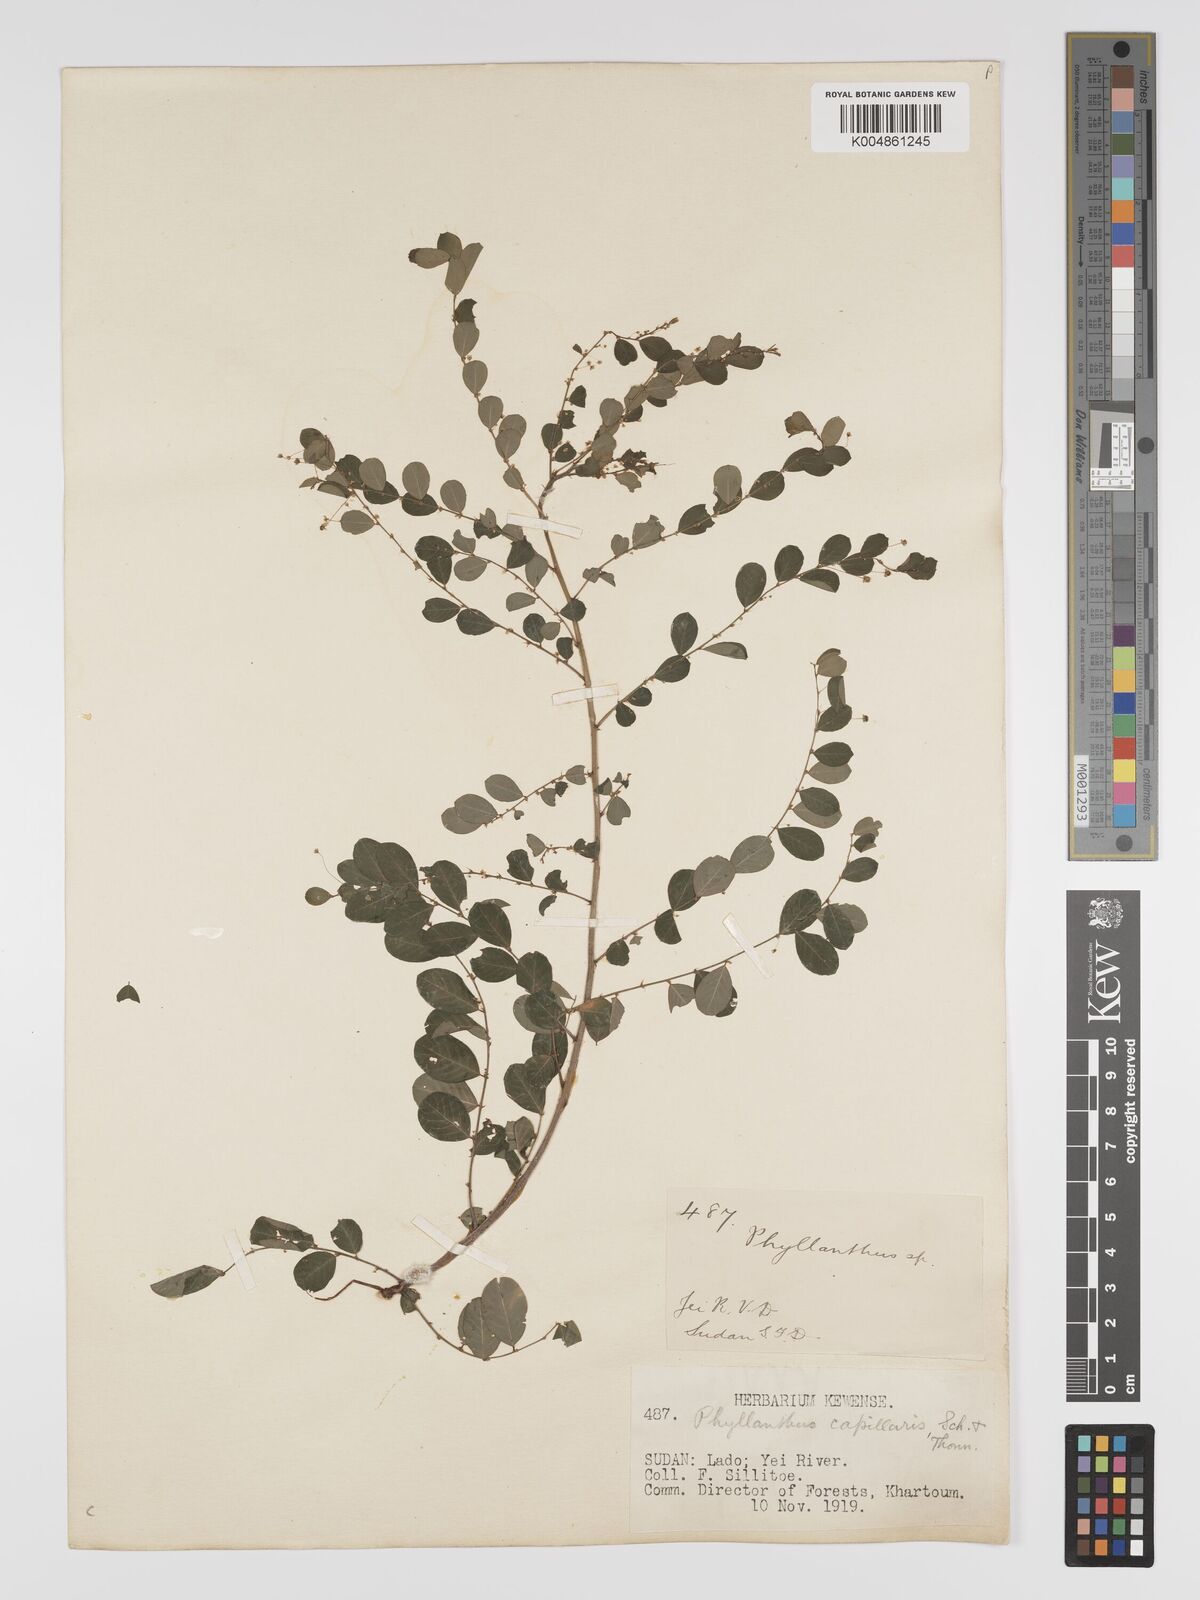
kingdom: Plantae
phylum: Tracheophyta
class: Magnoliopsida
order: Malpighiales
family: Phyllanthaceae
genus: Phyllanthus
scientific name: Phyllanthus nummulariifolius
